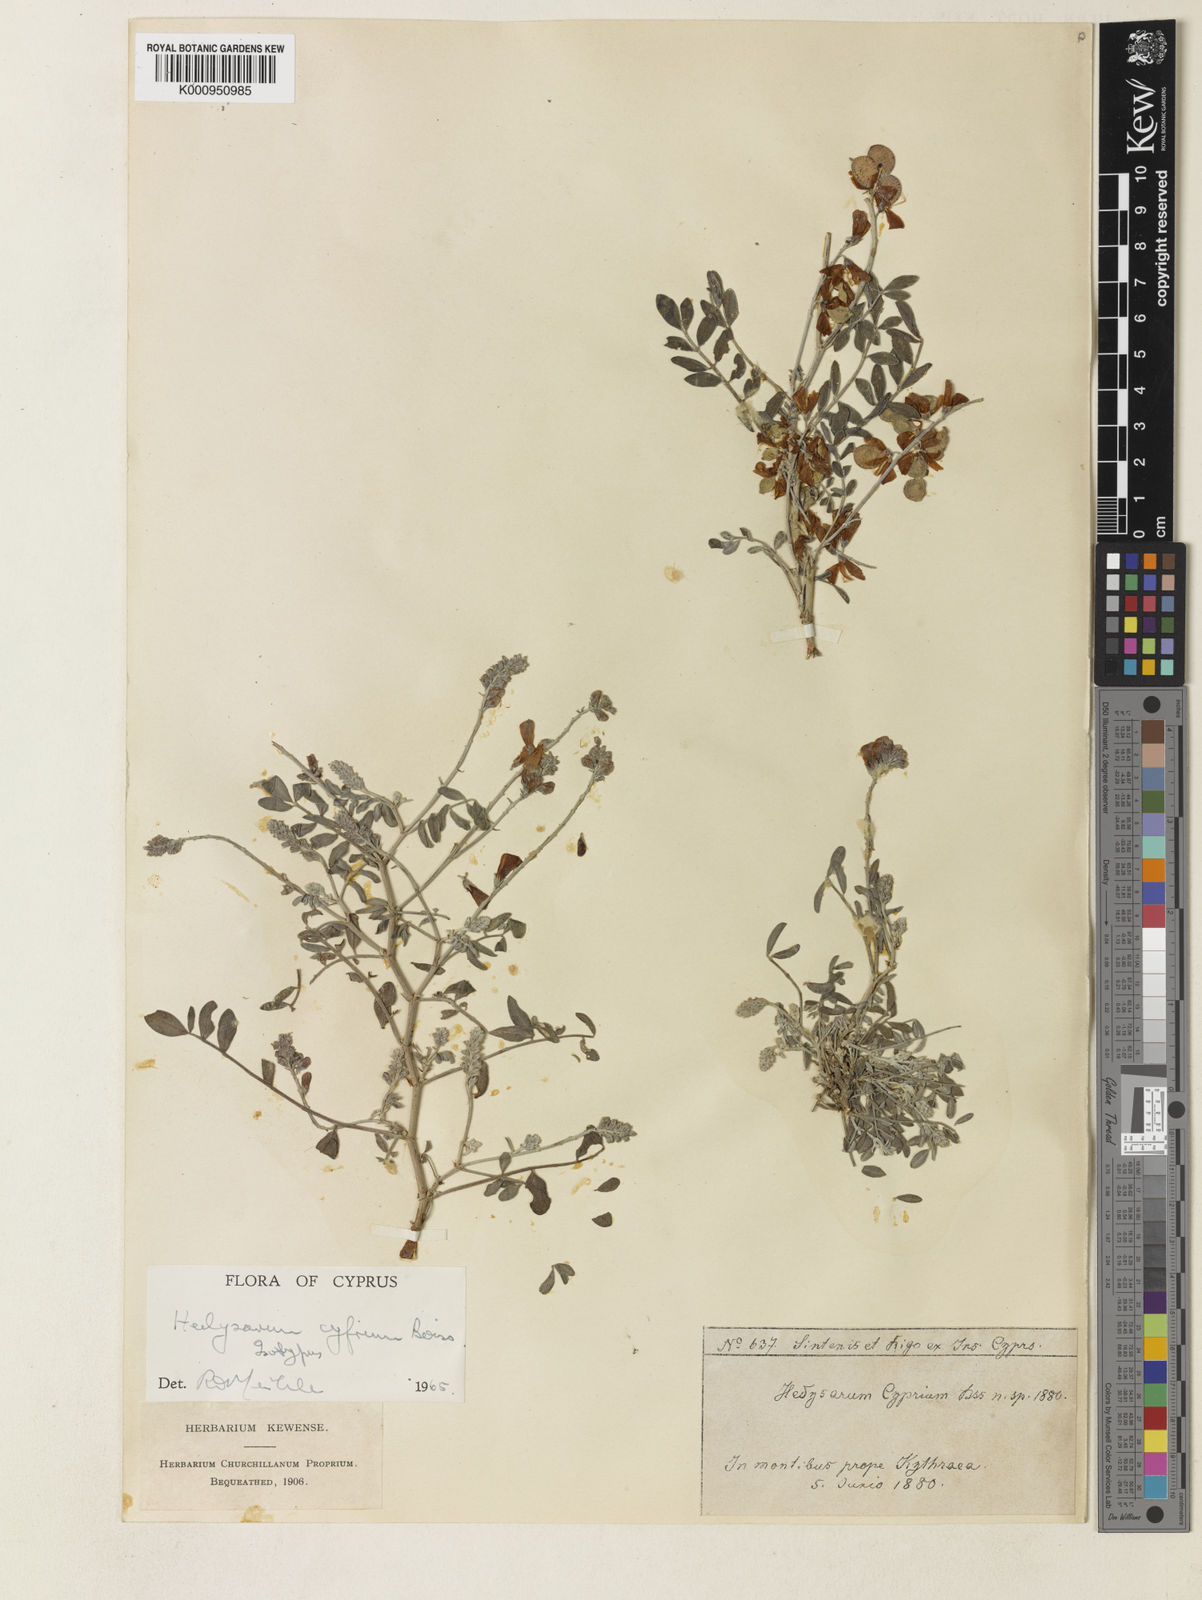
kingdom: Plantae
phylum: Tracheophyta
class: Magnoliopsida
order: Fabales
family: Fabaceae
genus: Hedysarum
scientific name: Hedysarum cyprium
